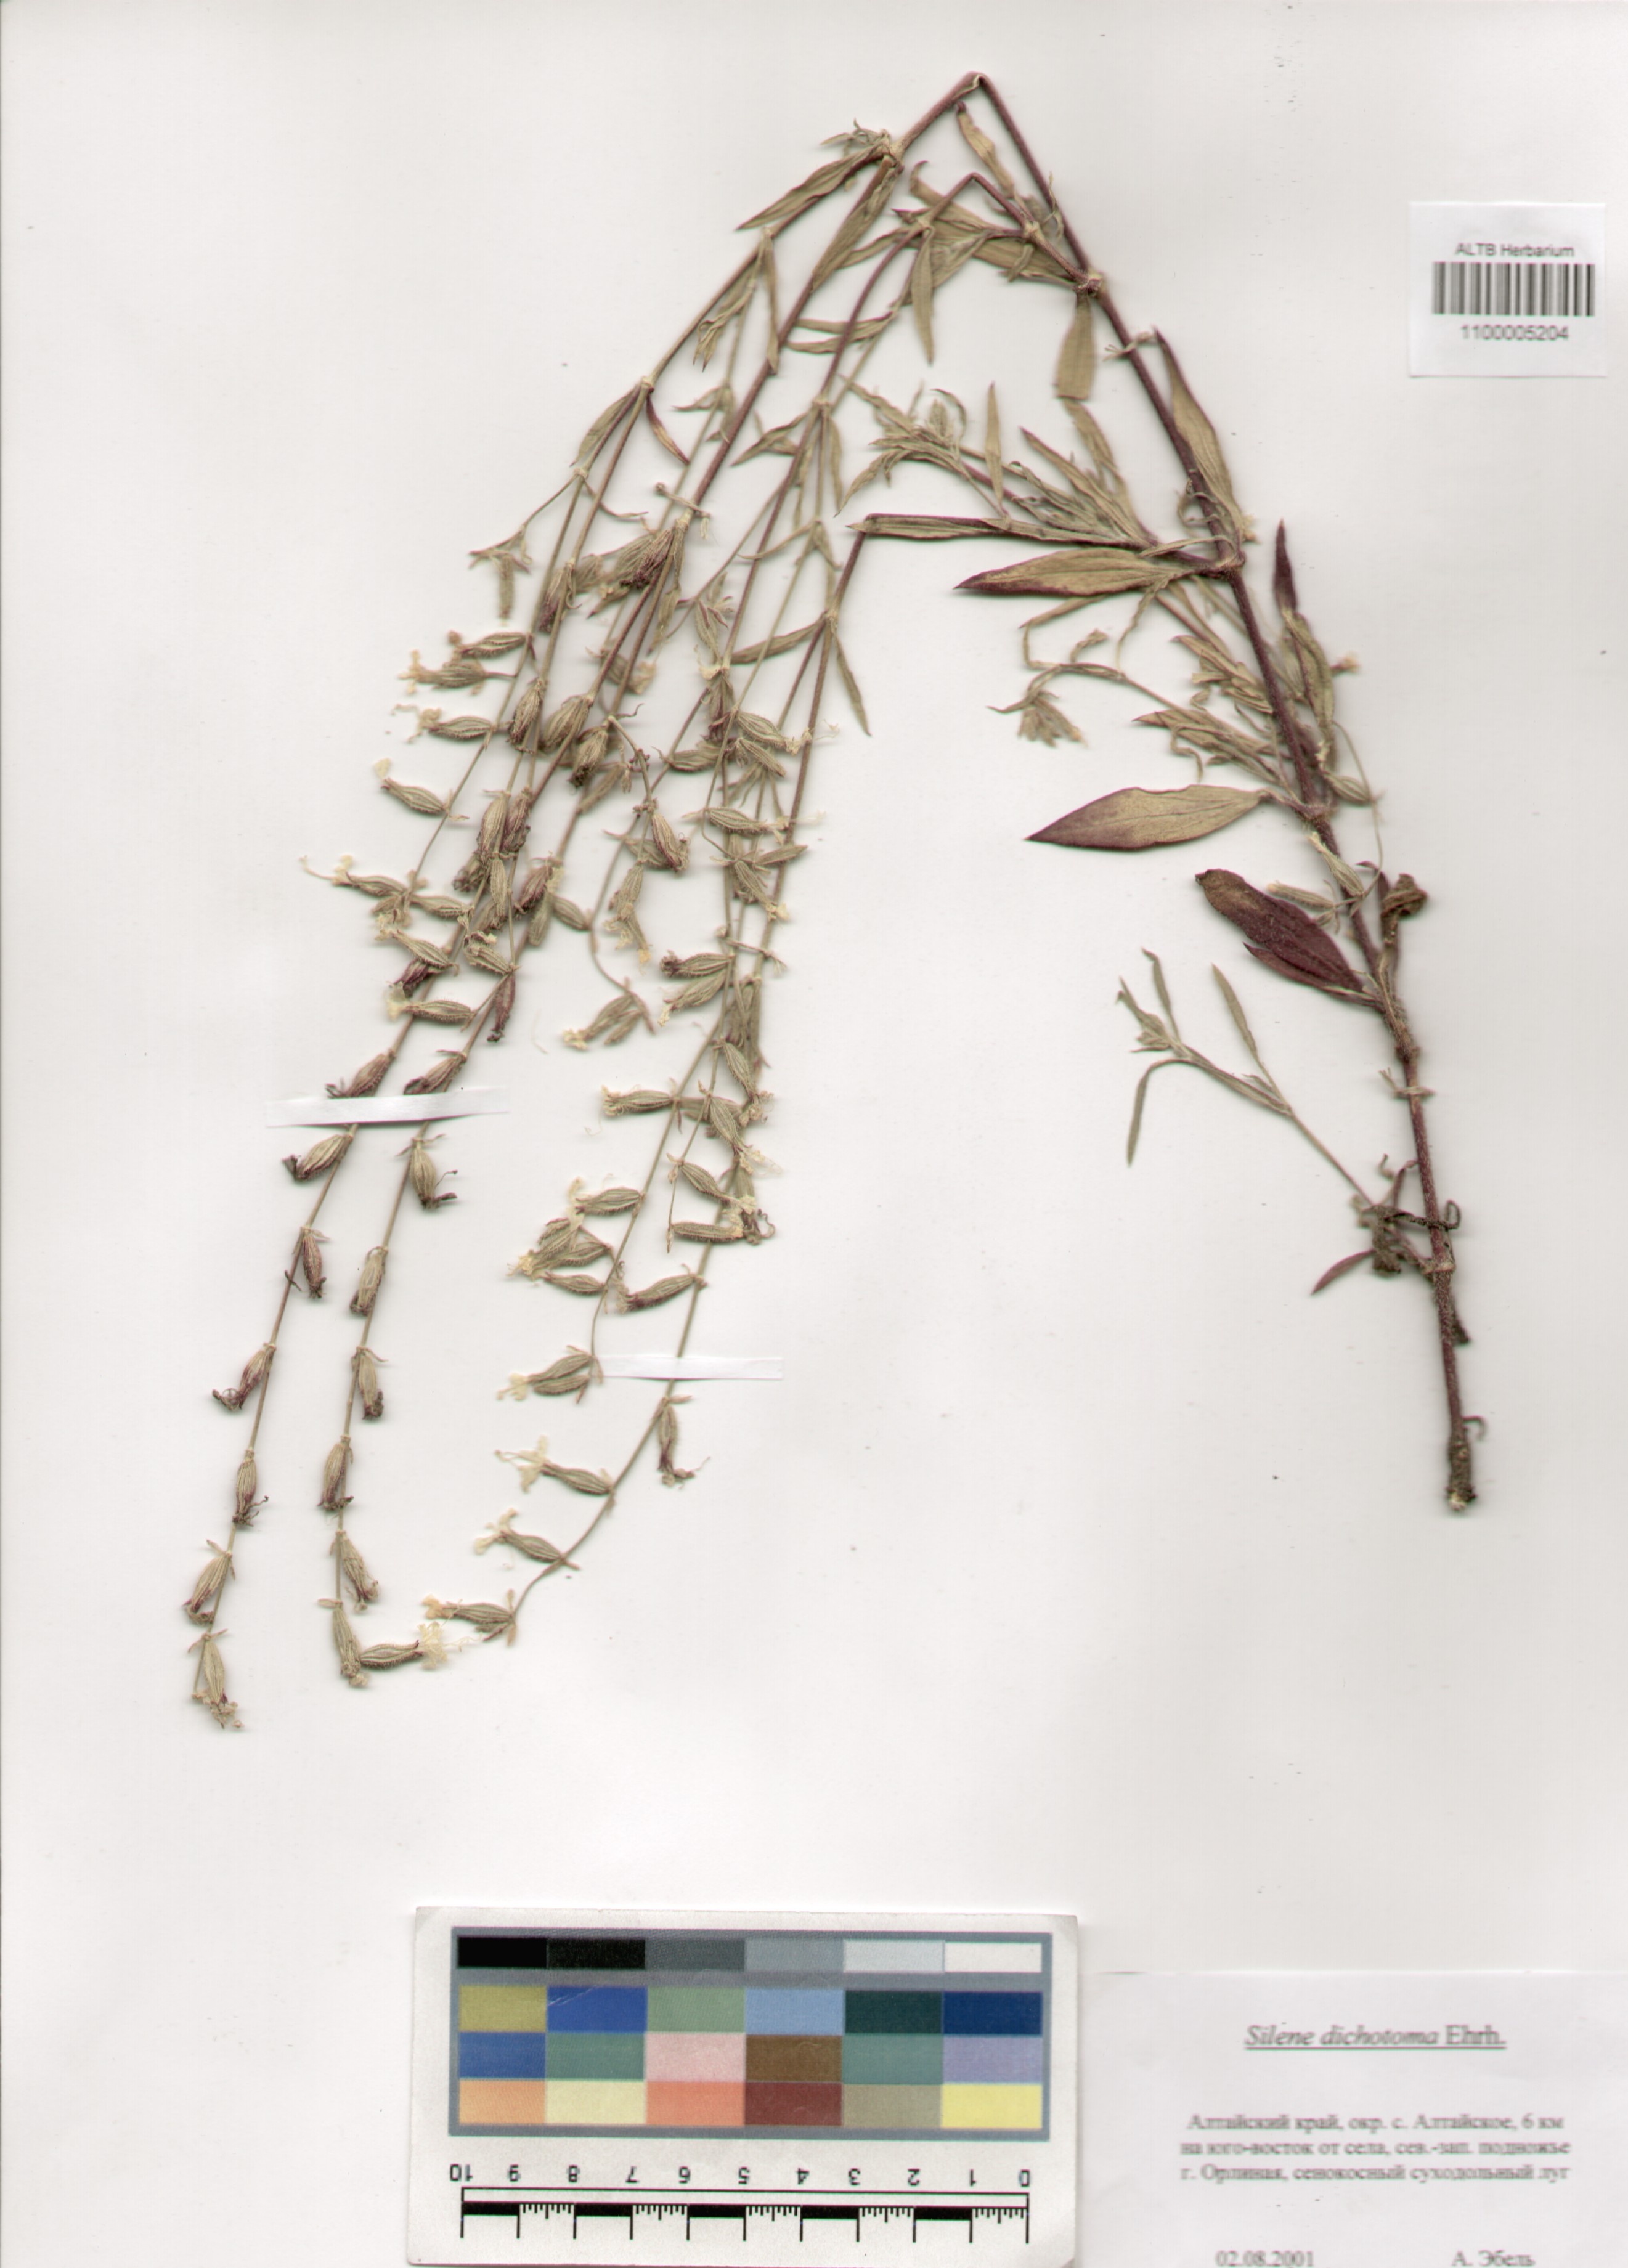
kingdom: Plantae
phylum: Tracheophyta
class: Magnoliopsida
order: Caryophyllales
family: Caryophyllaceae
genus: Silene
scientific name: Silene dichotoma
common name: Forked catchfly
